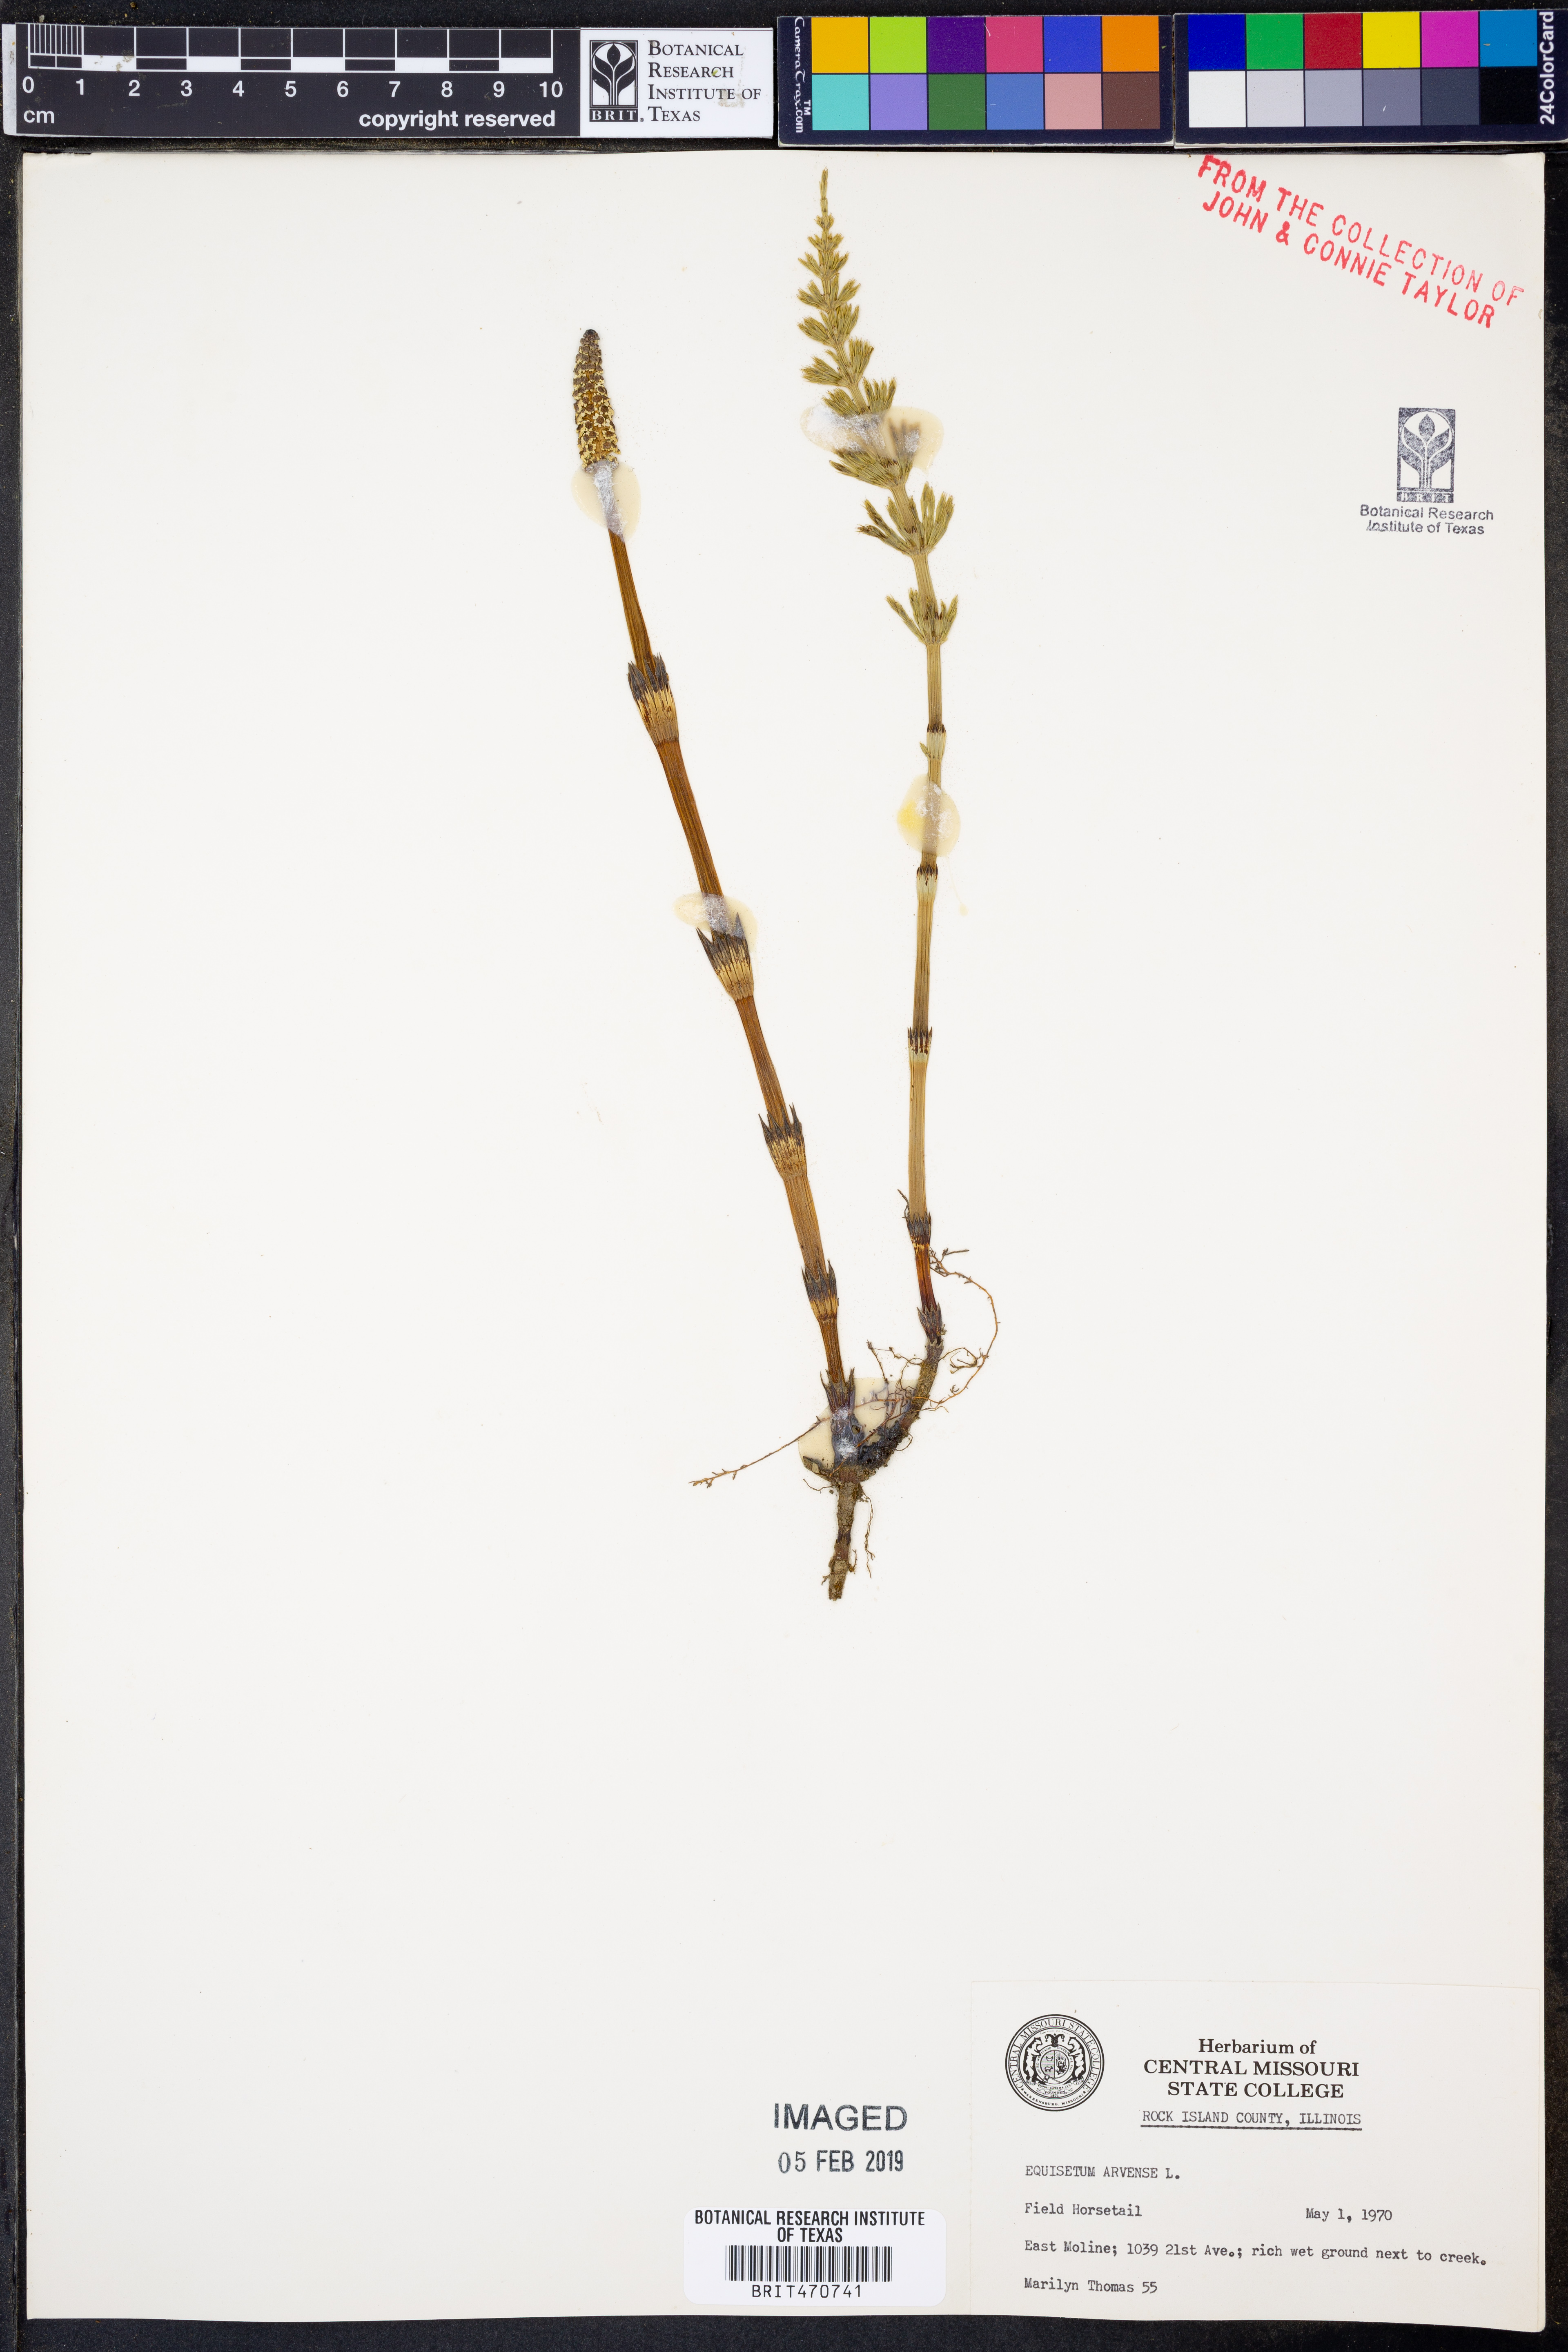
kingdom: Plantae
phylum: Tracheophyta
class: Polypodiopsida
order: Equisetales
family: Equisetaceae
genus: Equisetum
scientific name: Equisetum arvense
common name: Field horsetail
